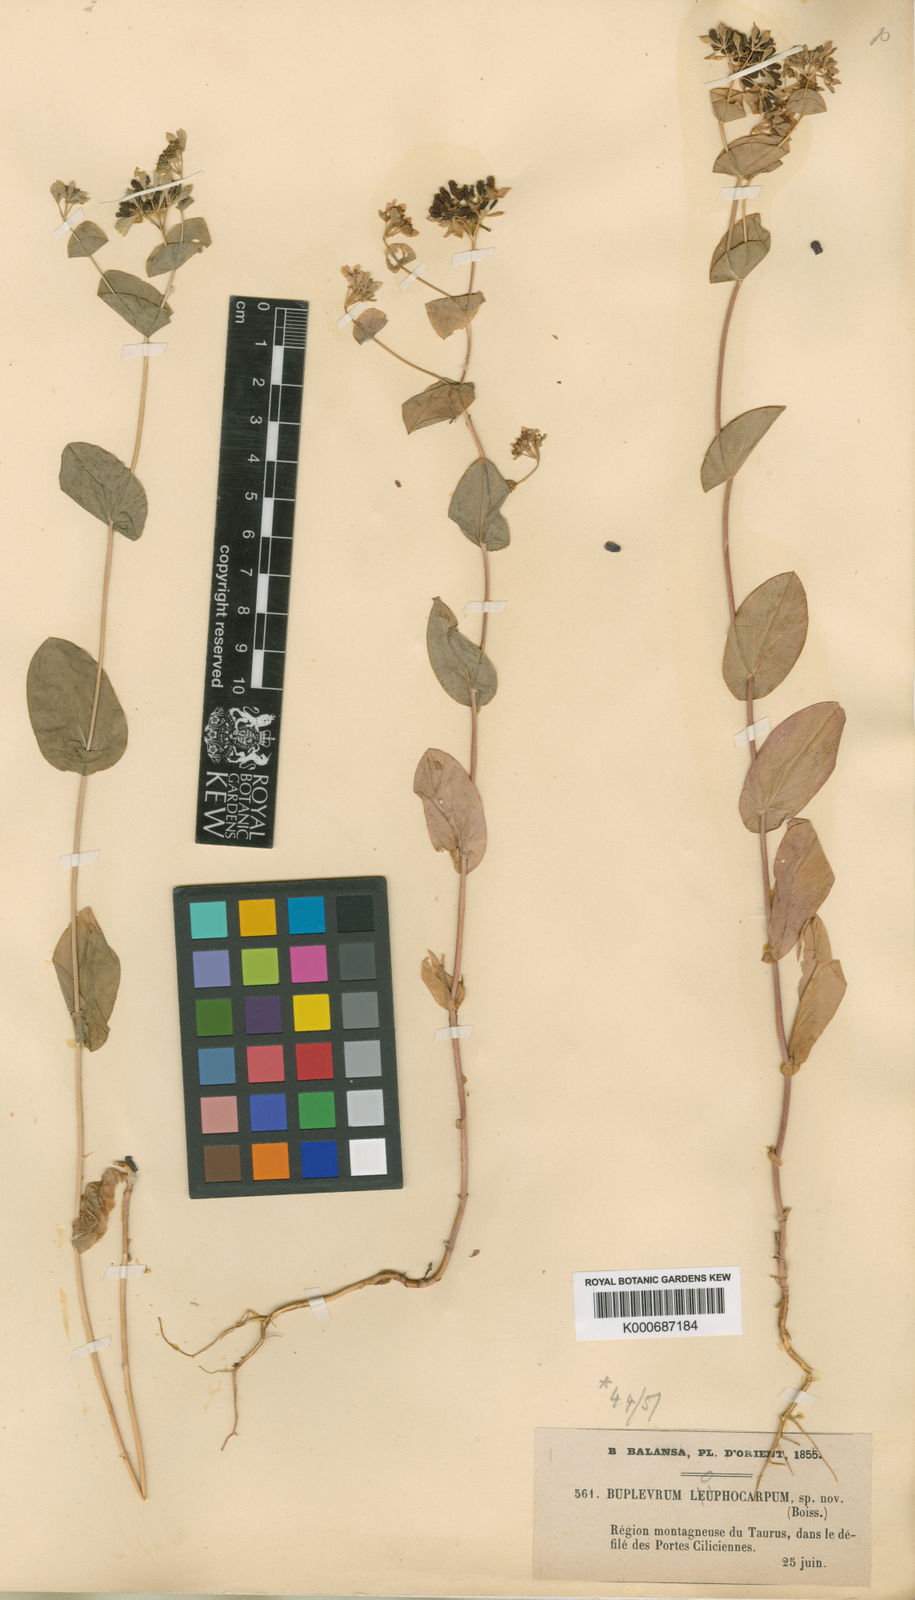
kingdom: Plantae
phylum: Tracheophyta
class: Magnoliopsida
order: Apiales
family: Apiaceae
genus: Bupleurum
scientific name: Bupleurum lophocarpum
